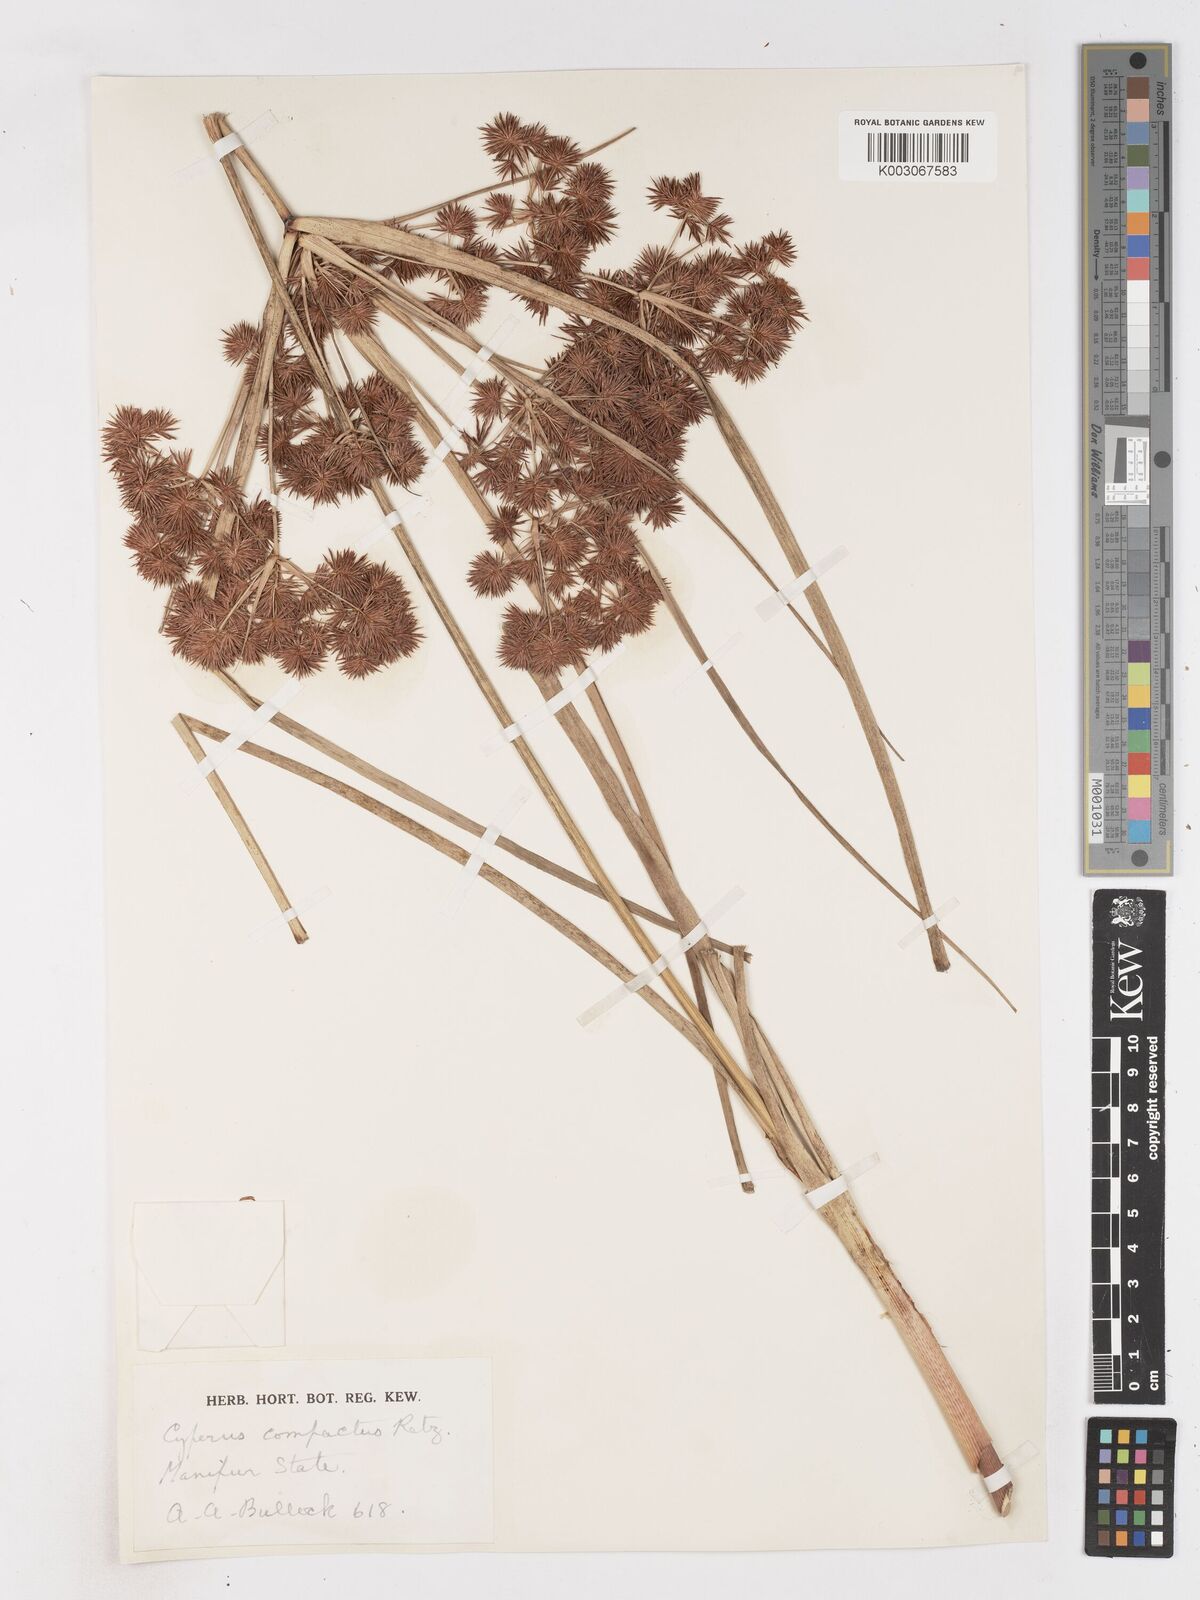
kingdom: Plantae
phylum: Tracheophyta
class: Liliopsida
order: Poales
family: Cyperaceae
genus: Cyperus
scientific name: Cyperus compactus
